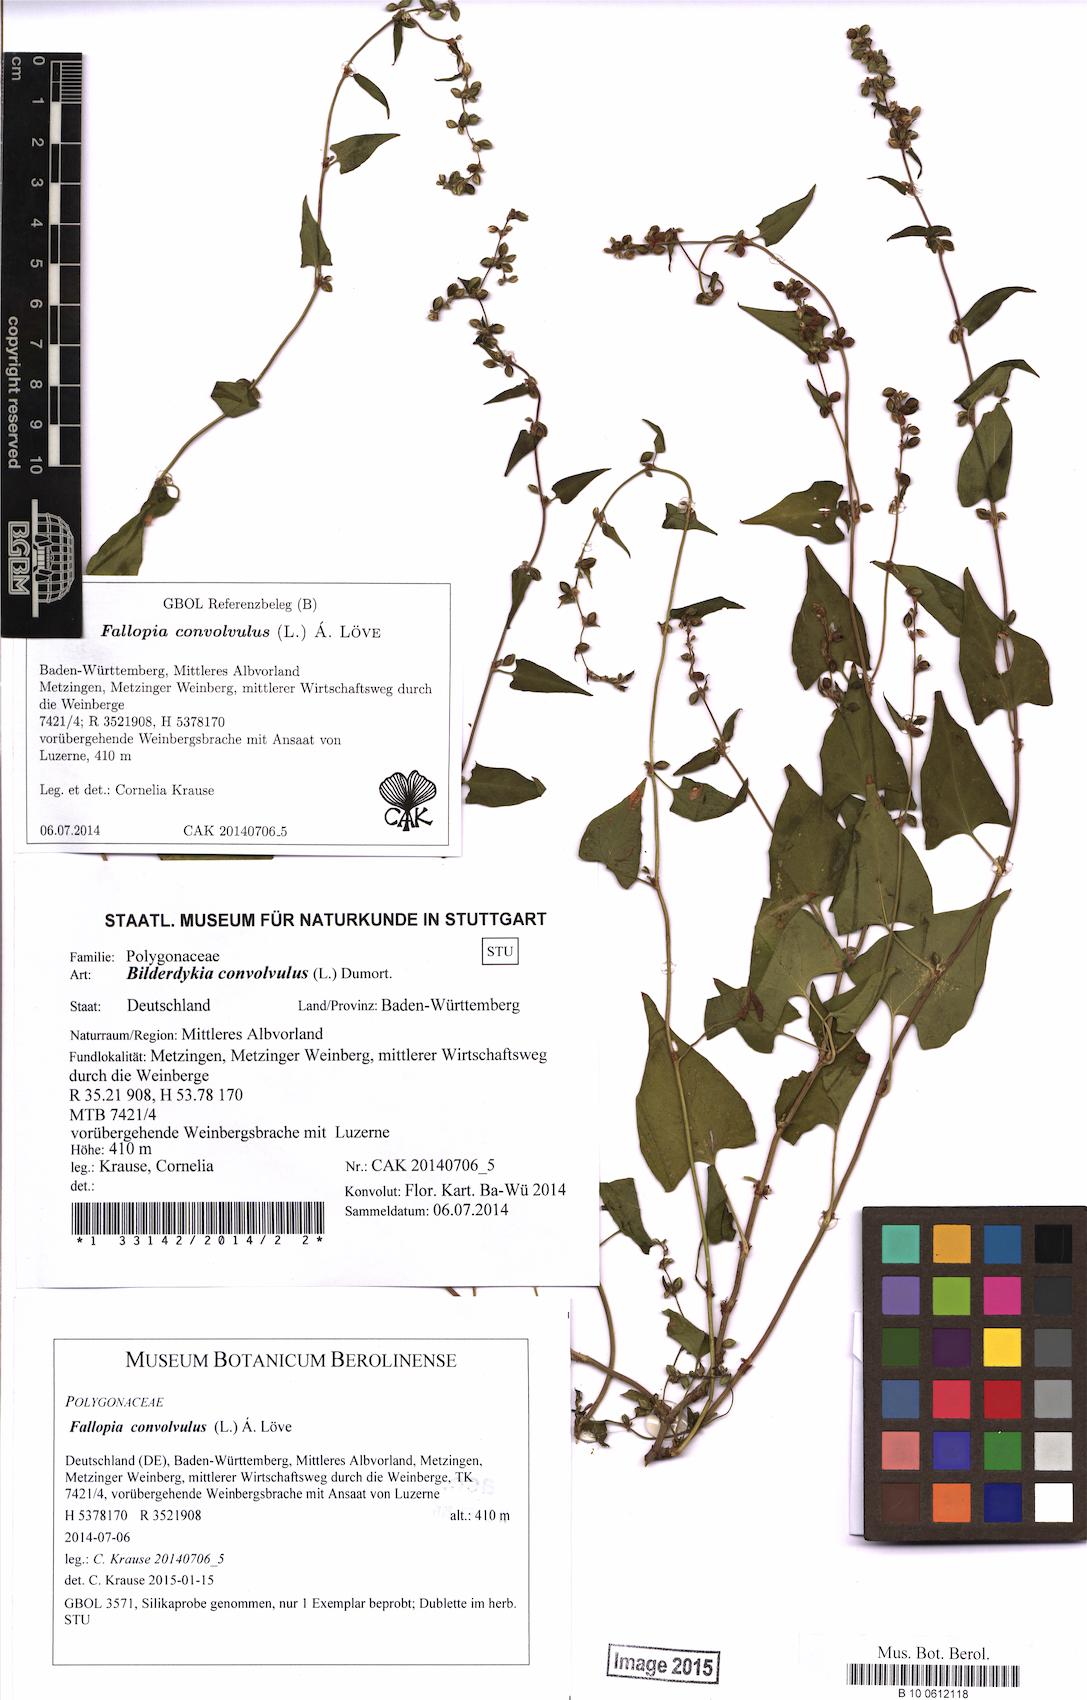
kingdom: Plantae
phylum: Tracheophyta
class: Magnoliopsida
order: Caryophyllales
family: Polygonaceae
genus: Fallopia
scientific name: Fallopia convolvulus
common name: Black bindweed
